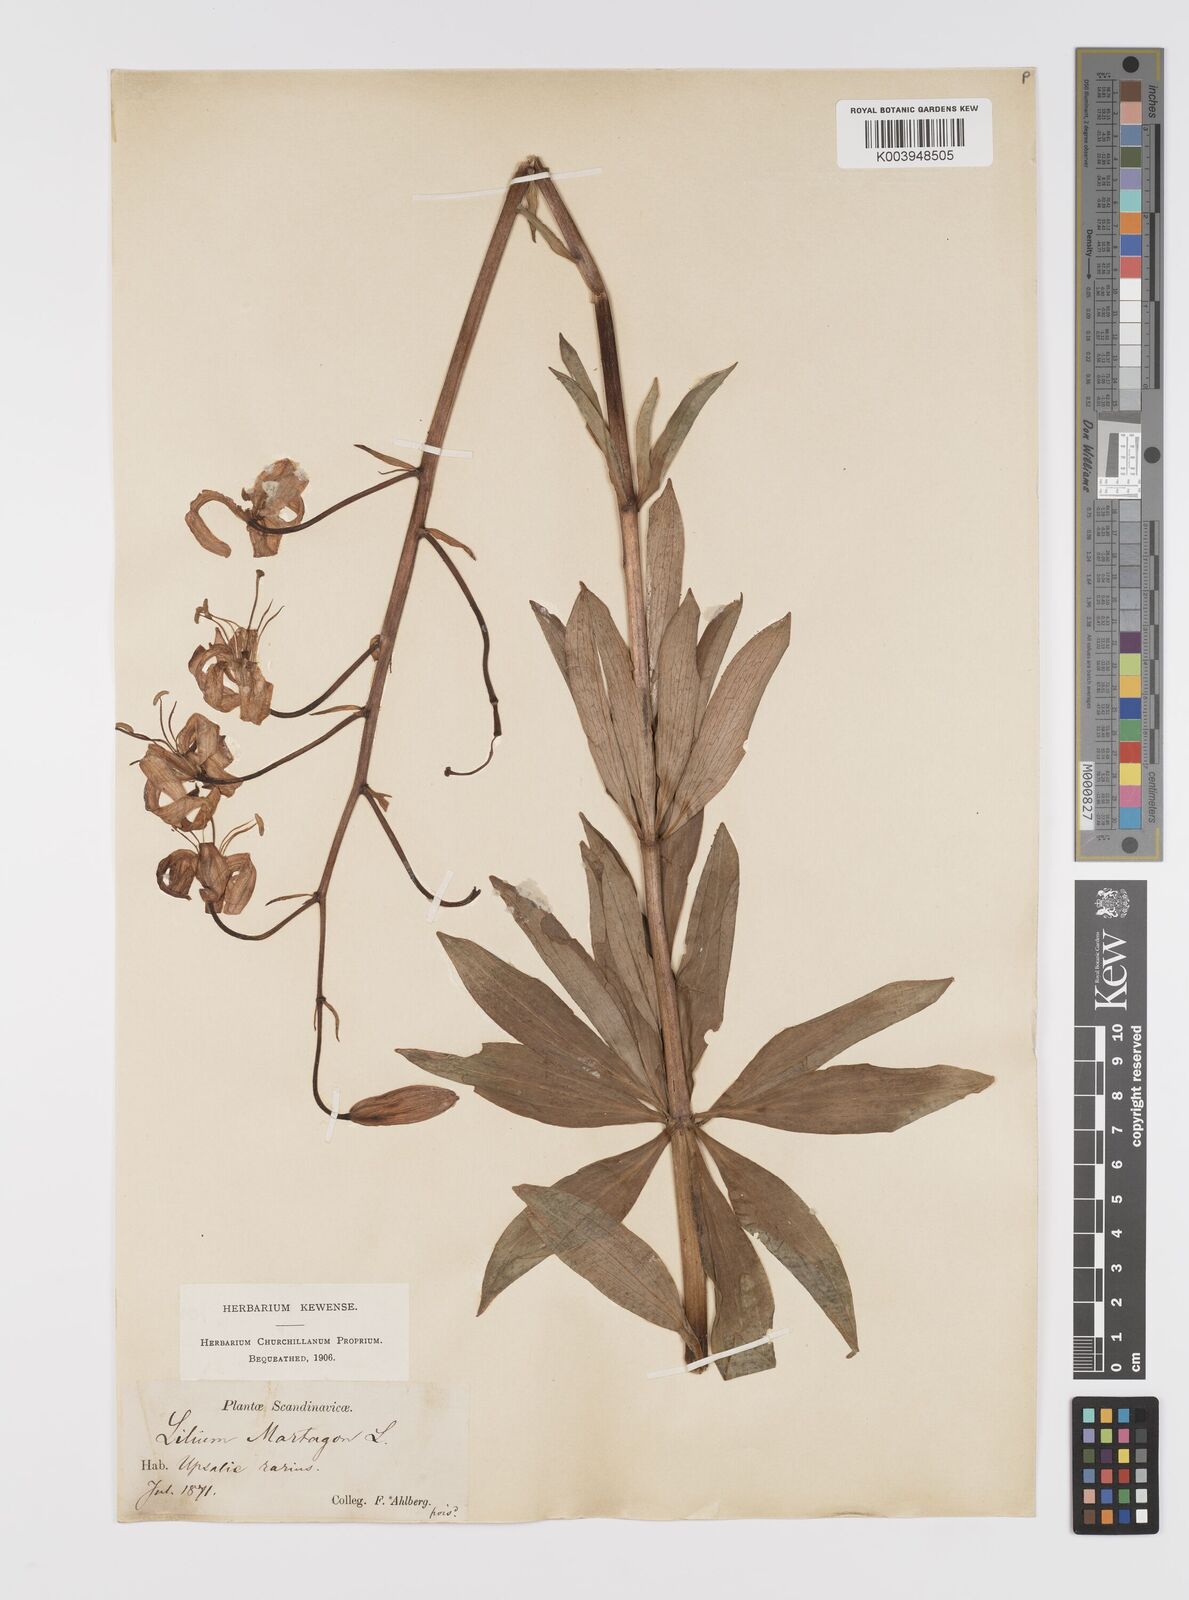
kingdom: Plantae
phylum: Tracheophyta
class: Liliopsida
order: Liliales
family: Liliaceae
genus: Lilium
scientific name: Lilium martagon
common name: Martagon lily
